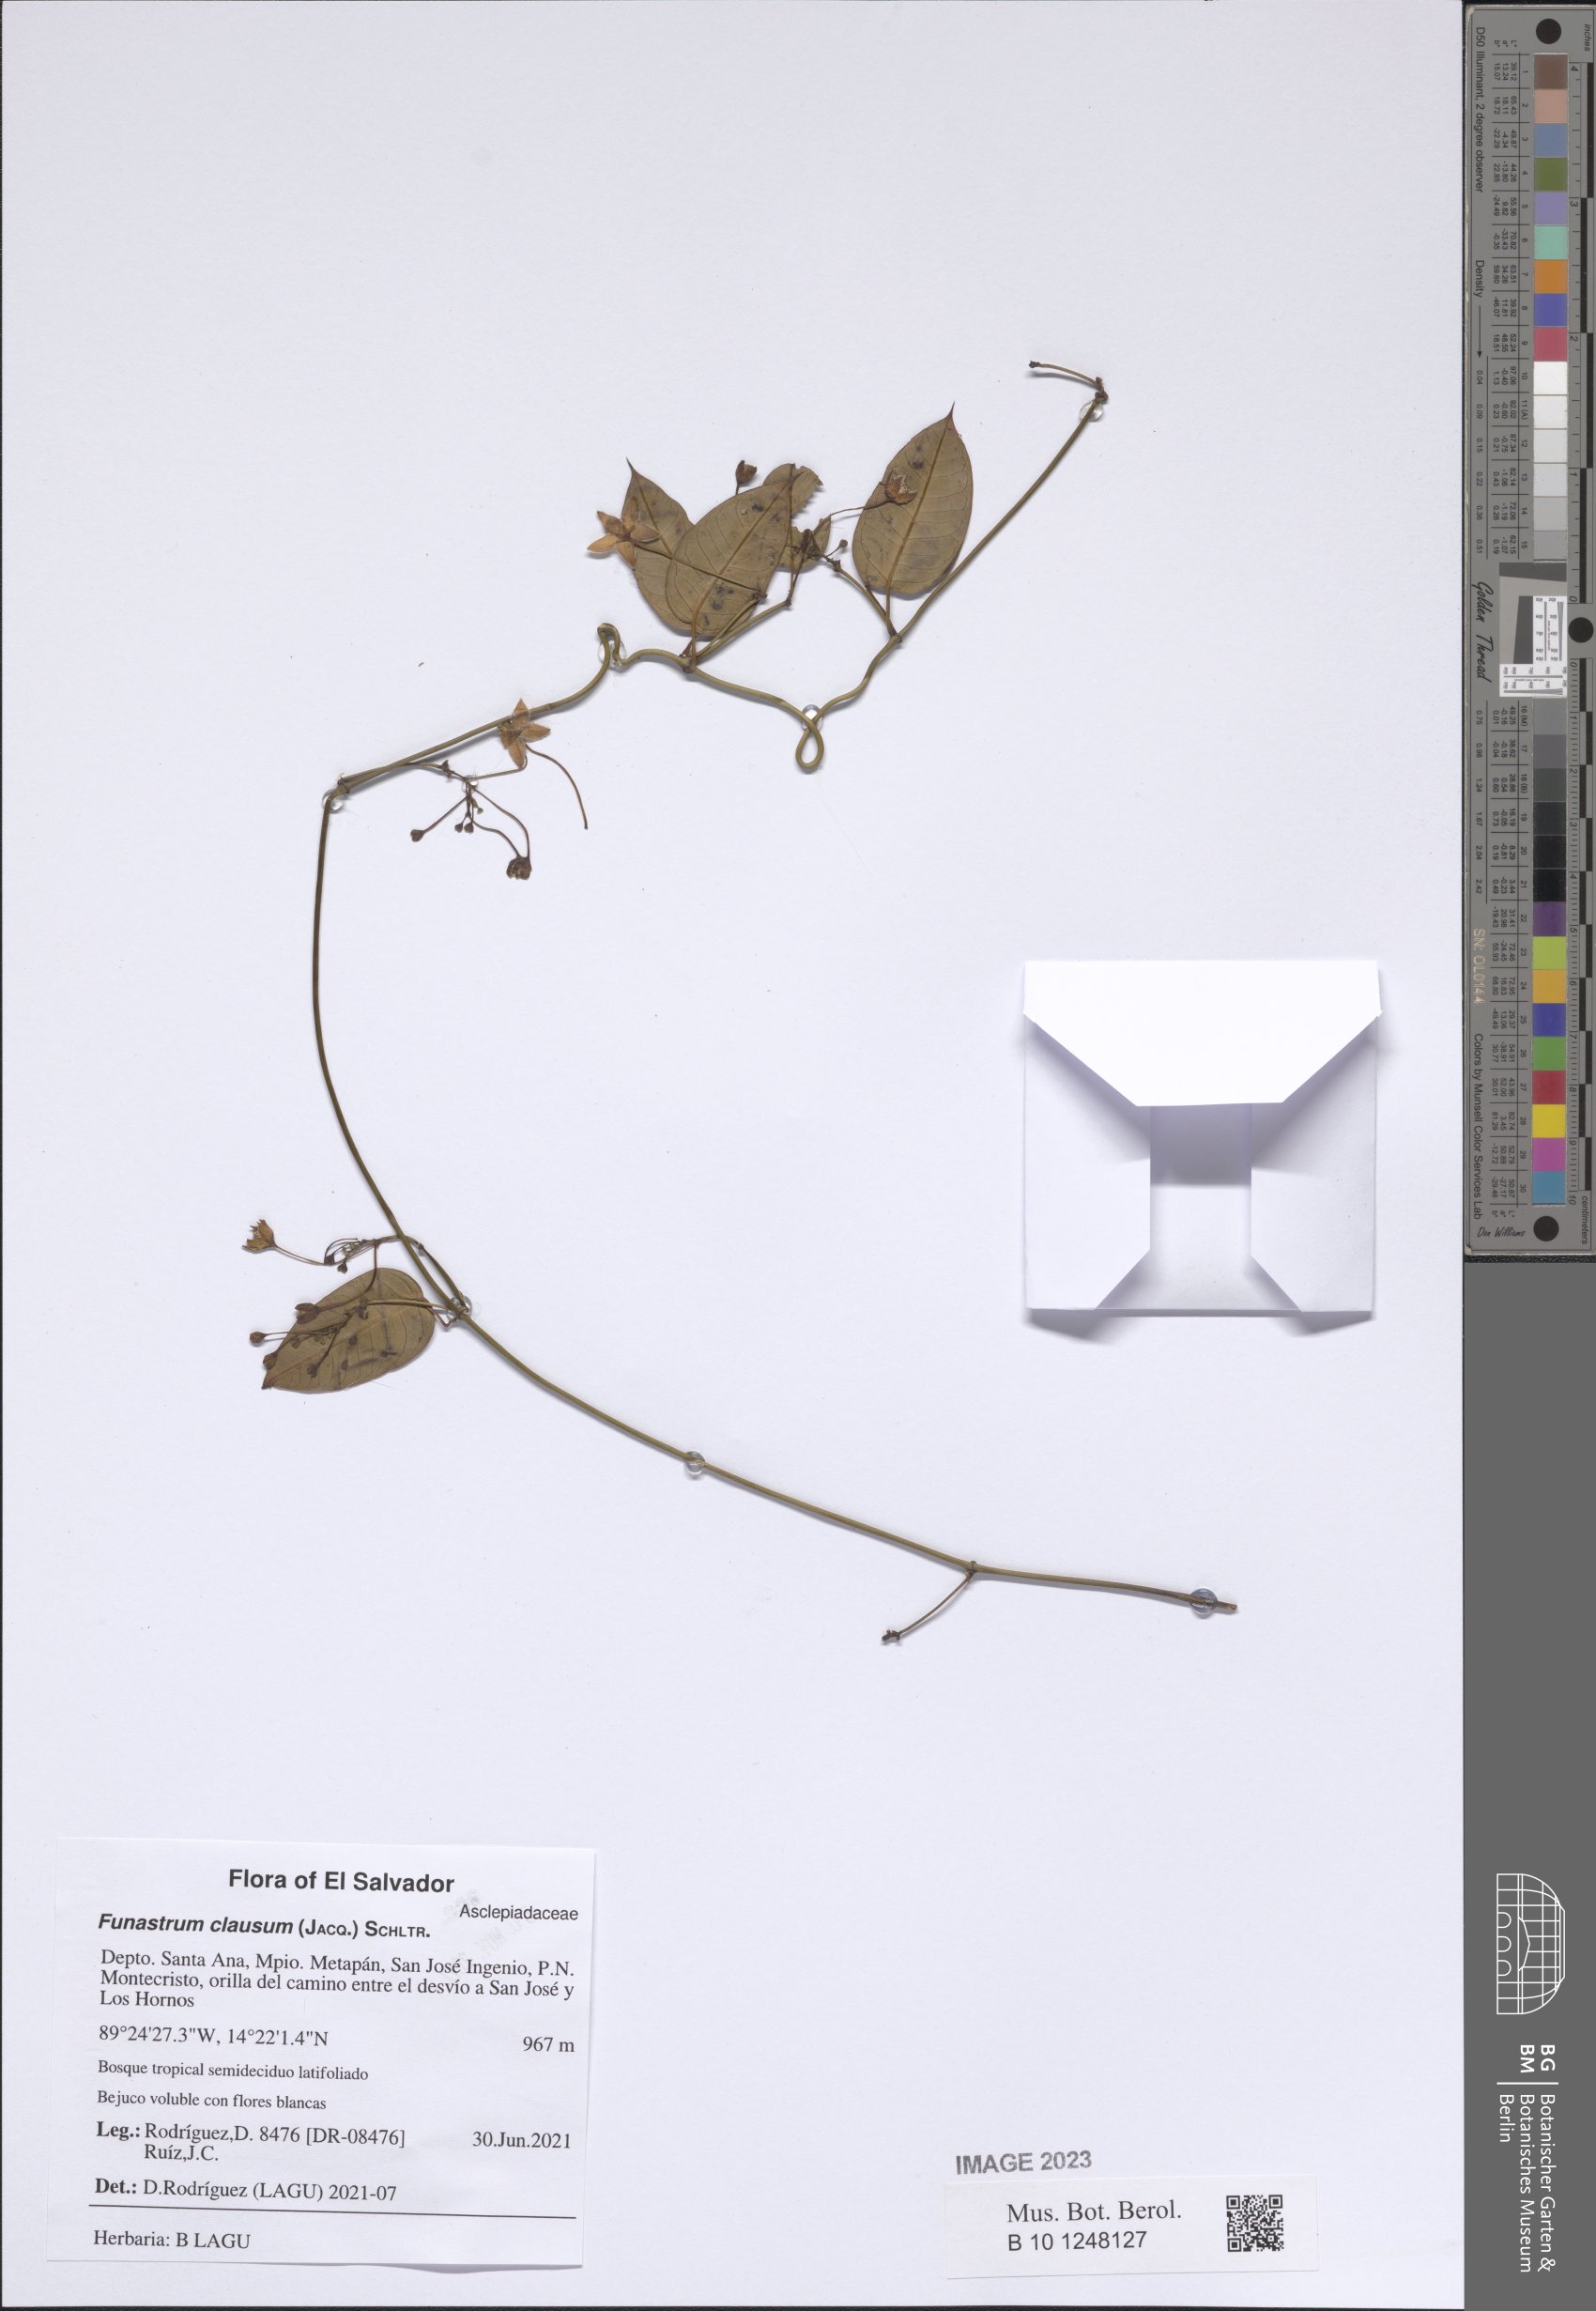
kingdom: Plantae
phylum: Tracheophyta
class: Magnoliopsida
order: Gentianales
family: Apocynaceae
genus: Funastrum
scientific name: Funastrum clausum
